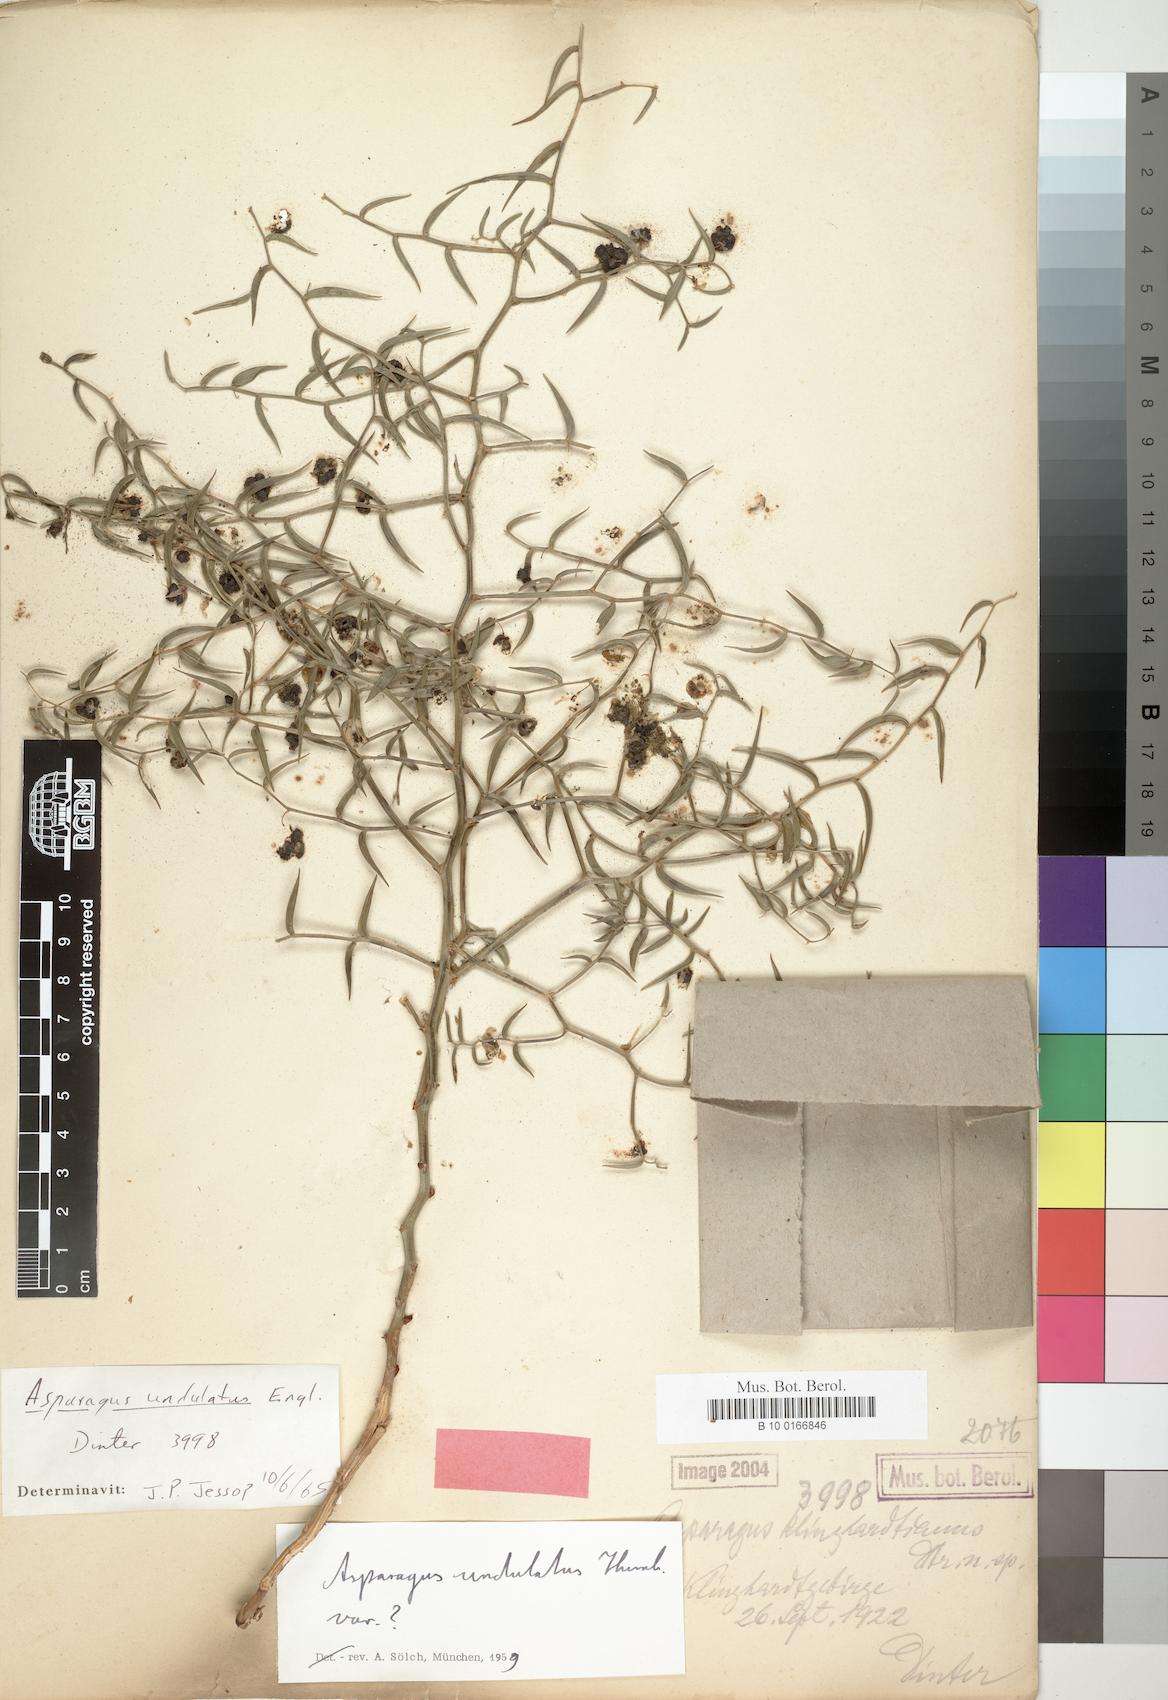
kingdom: Plantae
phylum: Tracheophyta
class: Liliopsida
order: Asparagales
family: Asparagaceae
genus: Asparagus
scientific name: Asparagus undulatus
